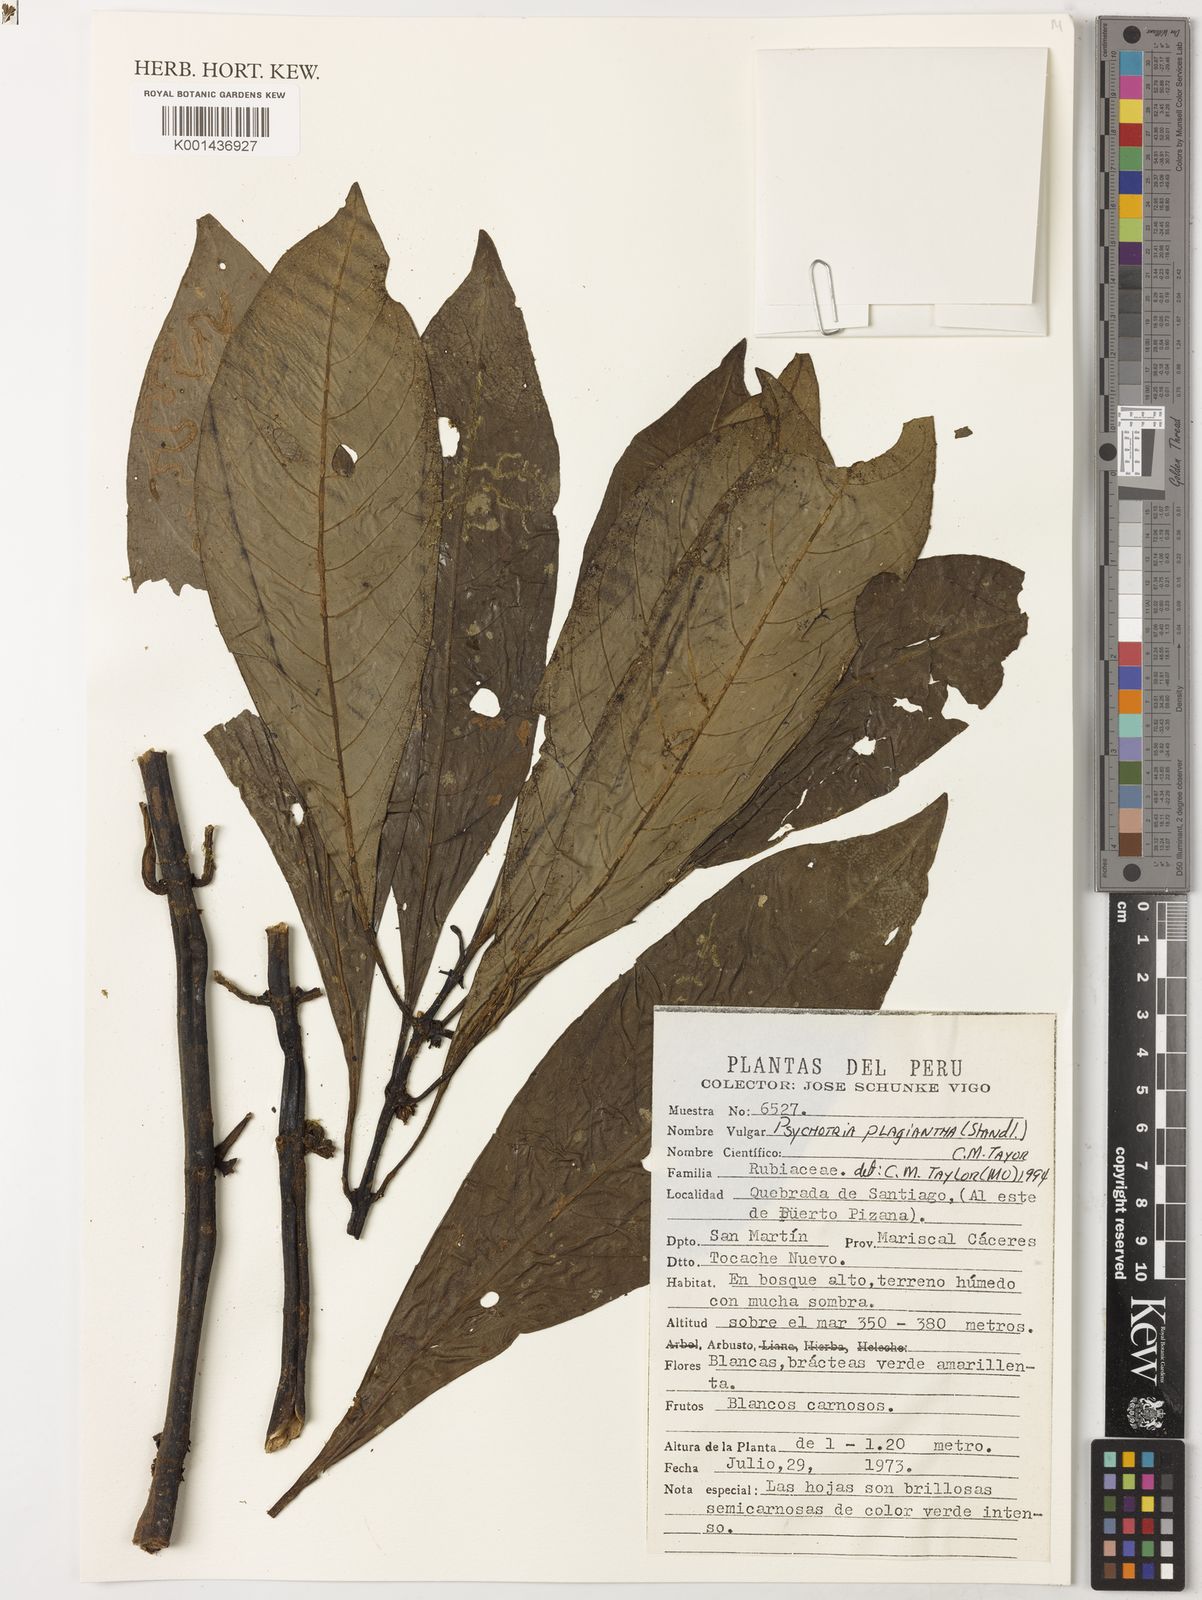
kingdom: Plantae
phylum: Tracheophyta
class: Magnoliopsida
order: Gentianales
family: Rubiaceae
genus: Notopleura
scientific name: Notopleura plagiantha
